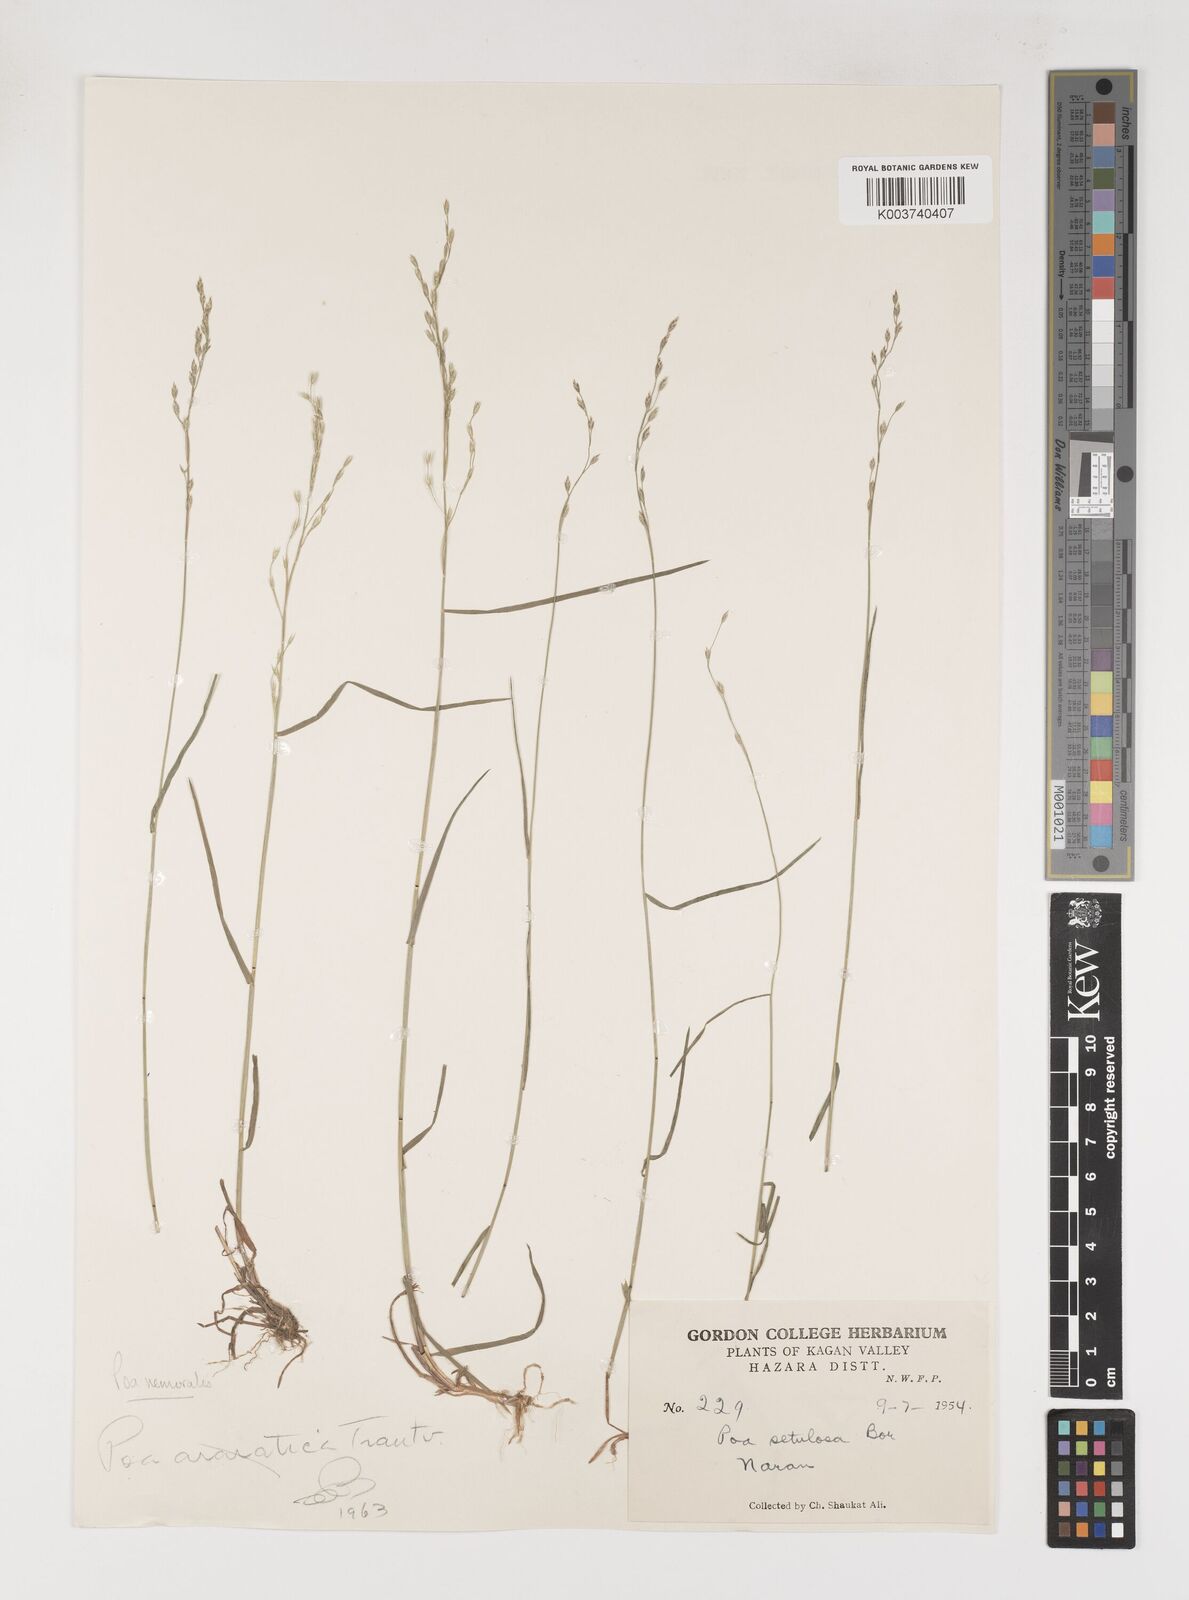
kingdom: Plantae
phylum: Tracheophyta
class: Liliopsida
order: Poales
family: Poaceae
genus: Poa
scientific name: Poa nemoralis
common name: Wood bluegrass
